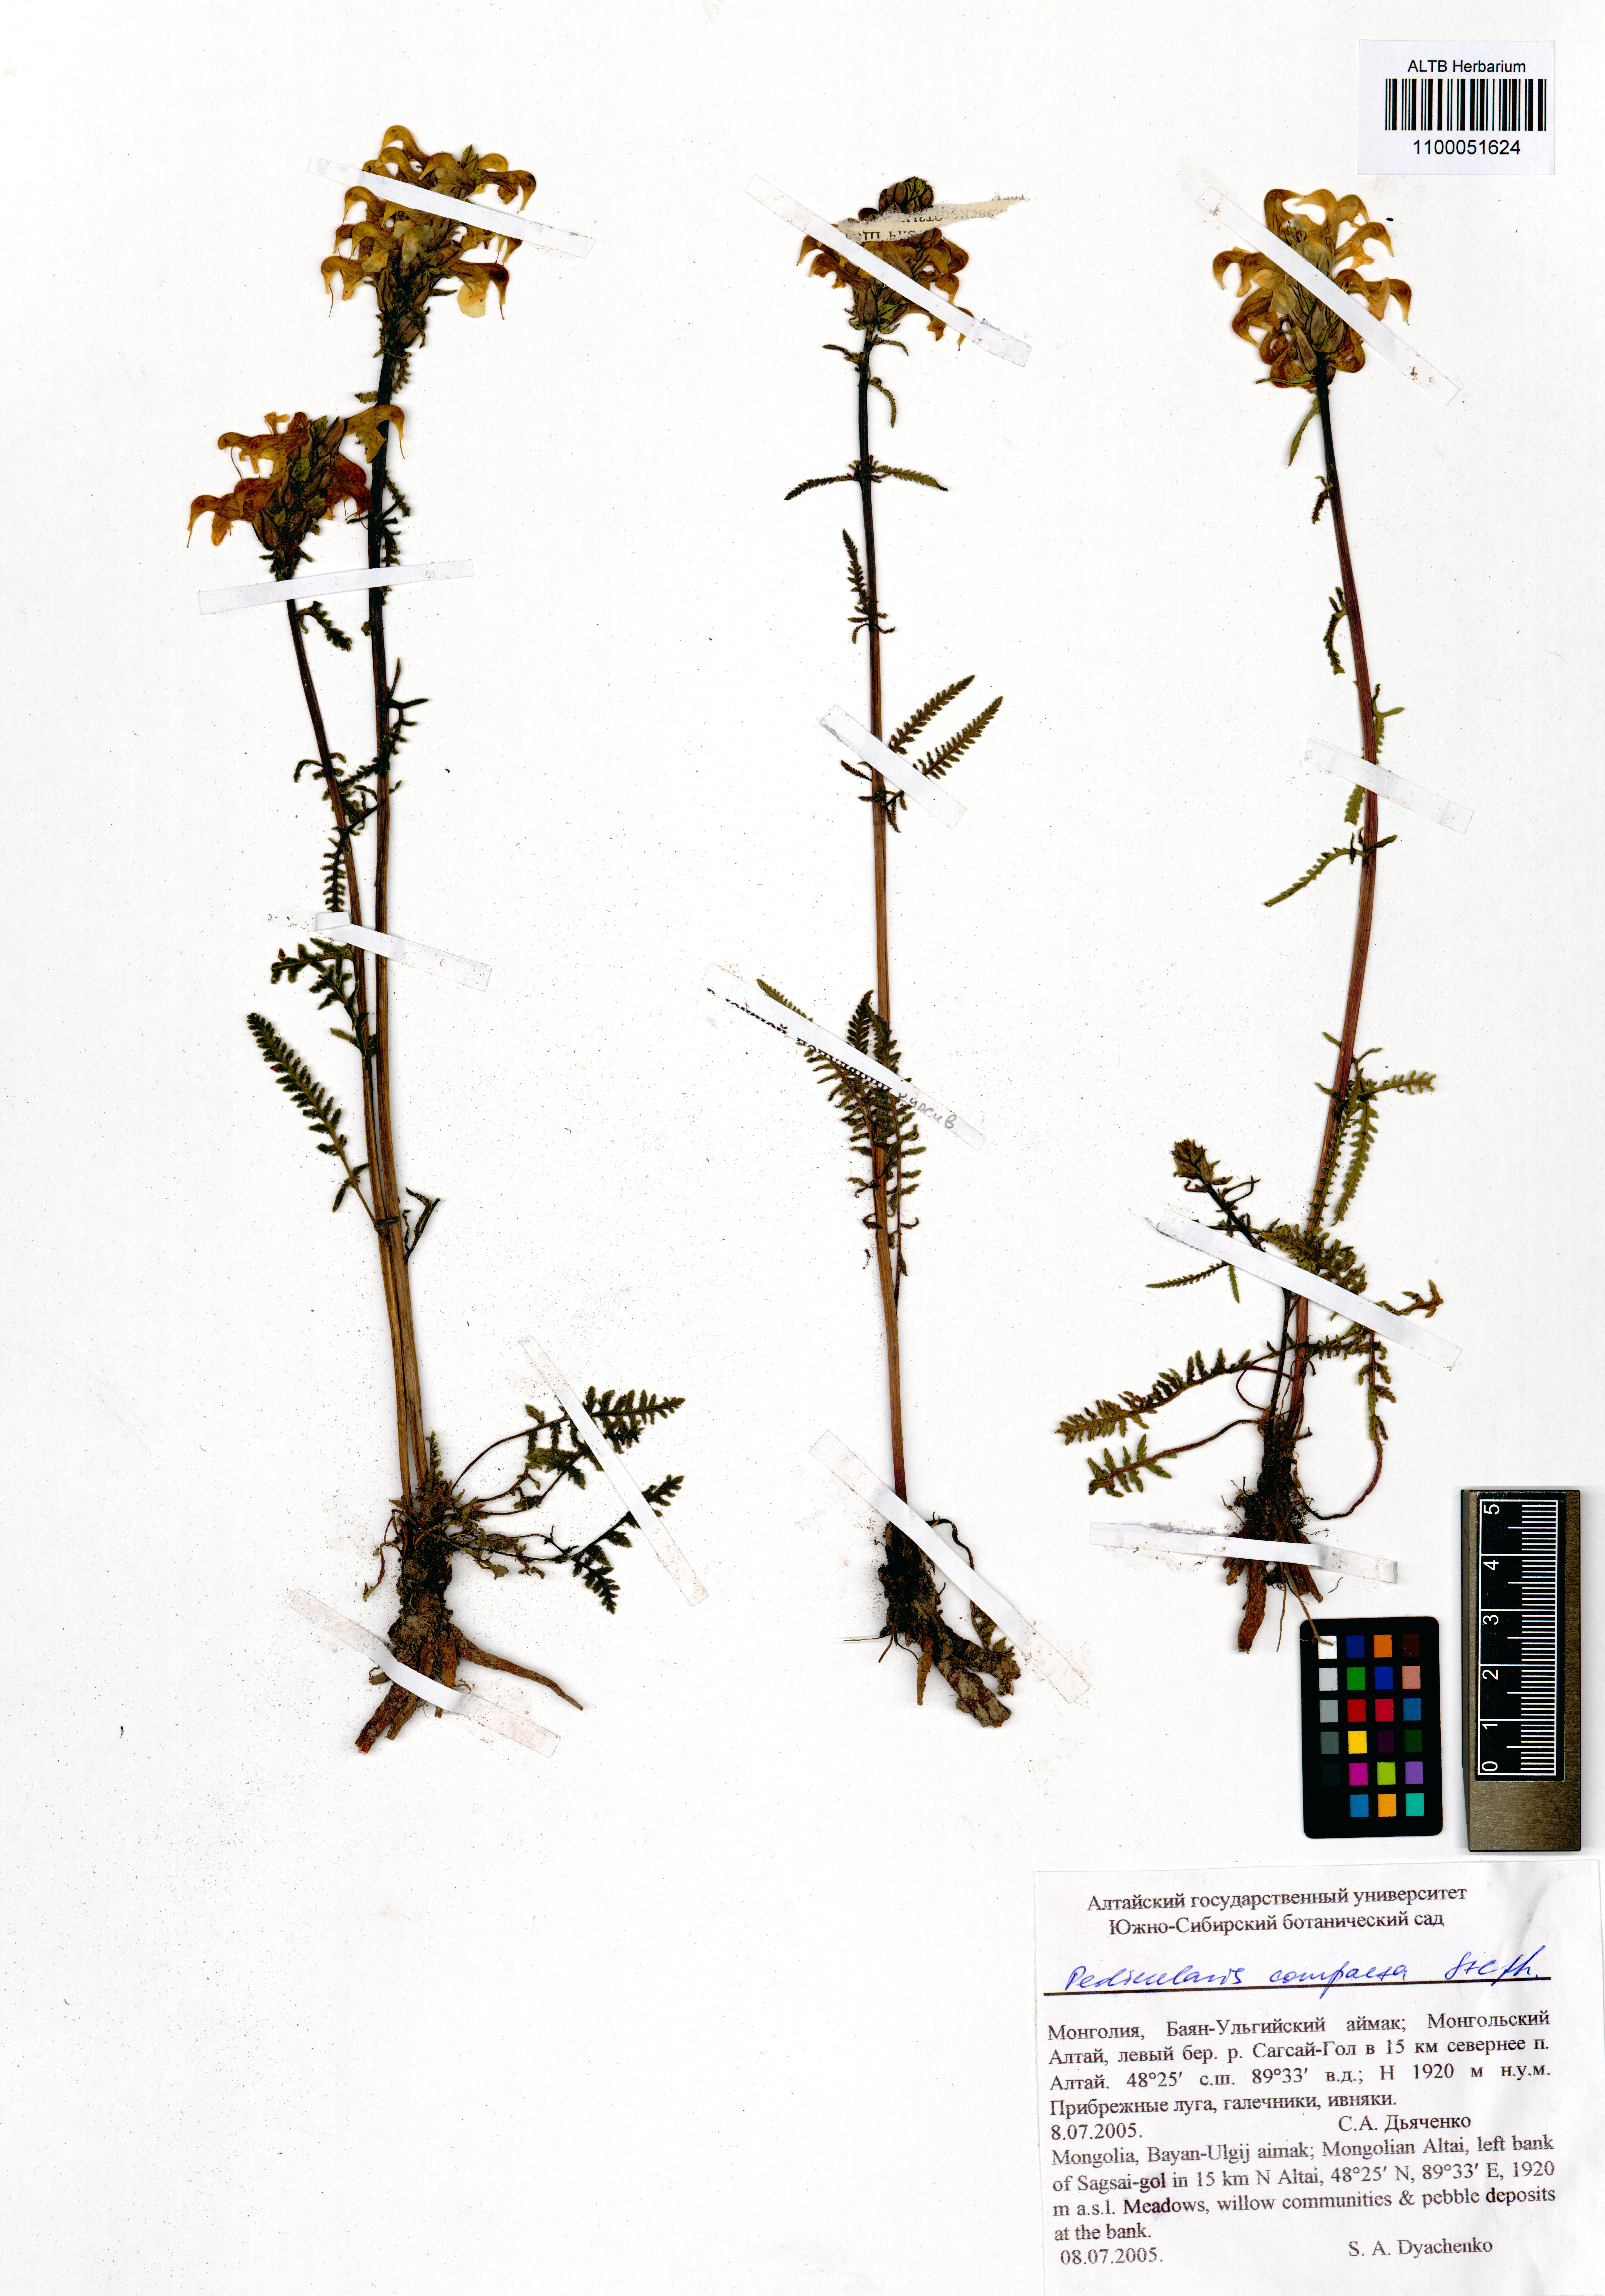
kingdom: Plantae
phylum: Tracheophyta
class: Magnoliopsida
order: Lamiales
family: Orobanchaceae
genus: Pedicularis
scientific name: Pedicularis compacta
